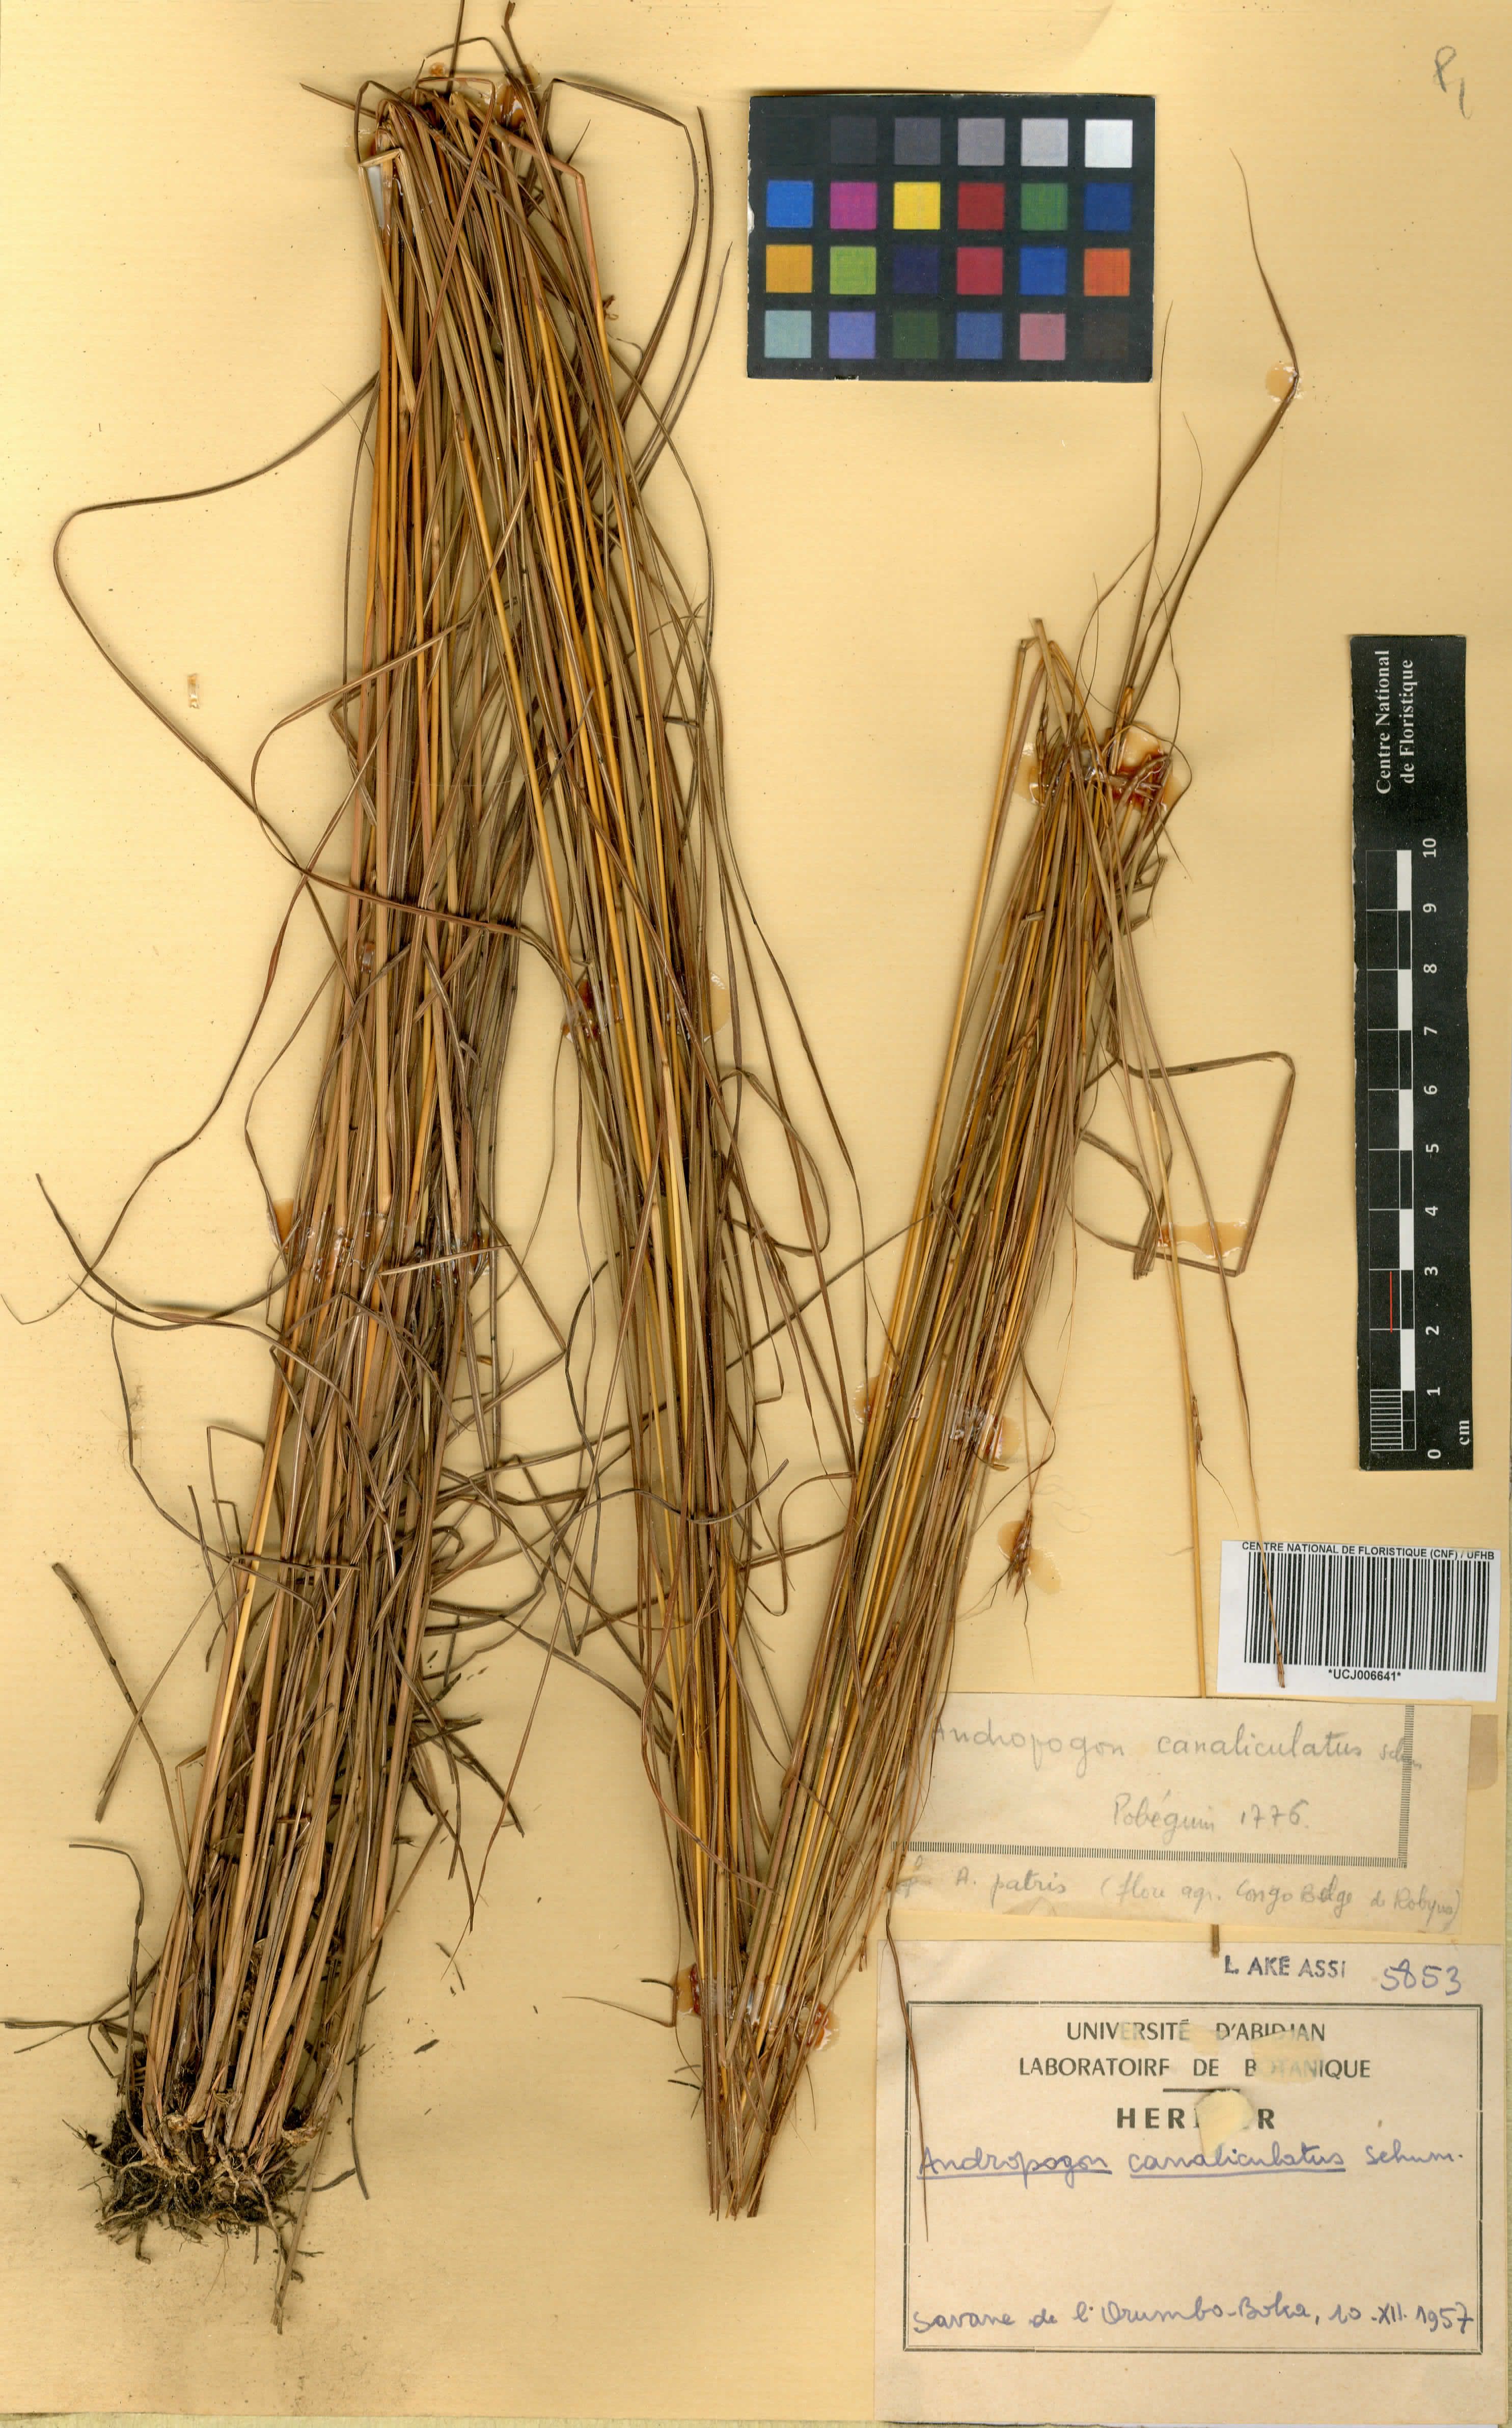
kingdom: Plantae
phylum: Tracheophyta
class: Liliopsida
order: Poales
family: Poaceae
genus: Andropogon
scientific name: Andropogon canaliculatus
